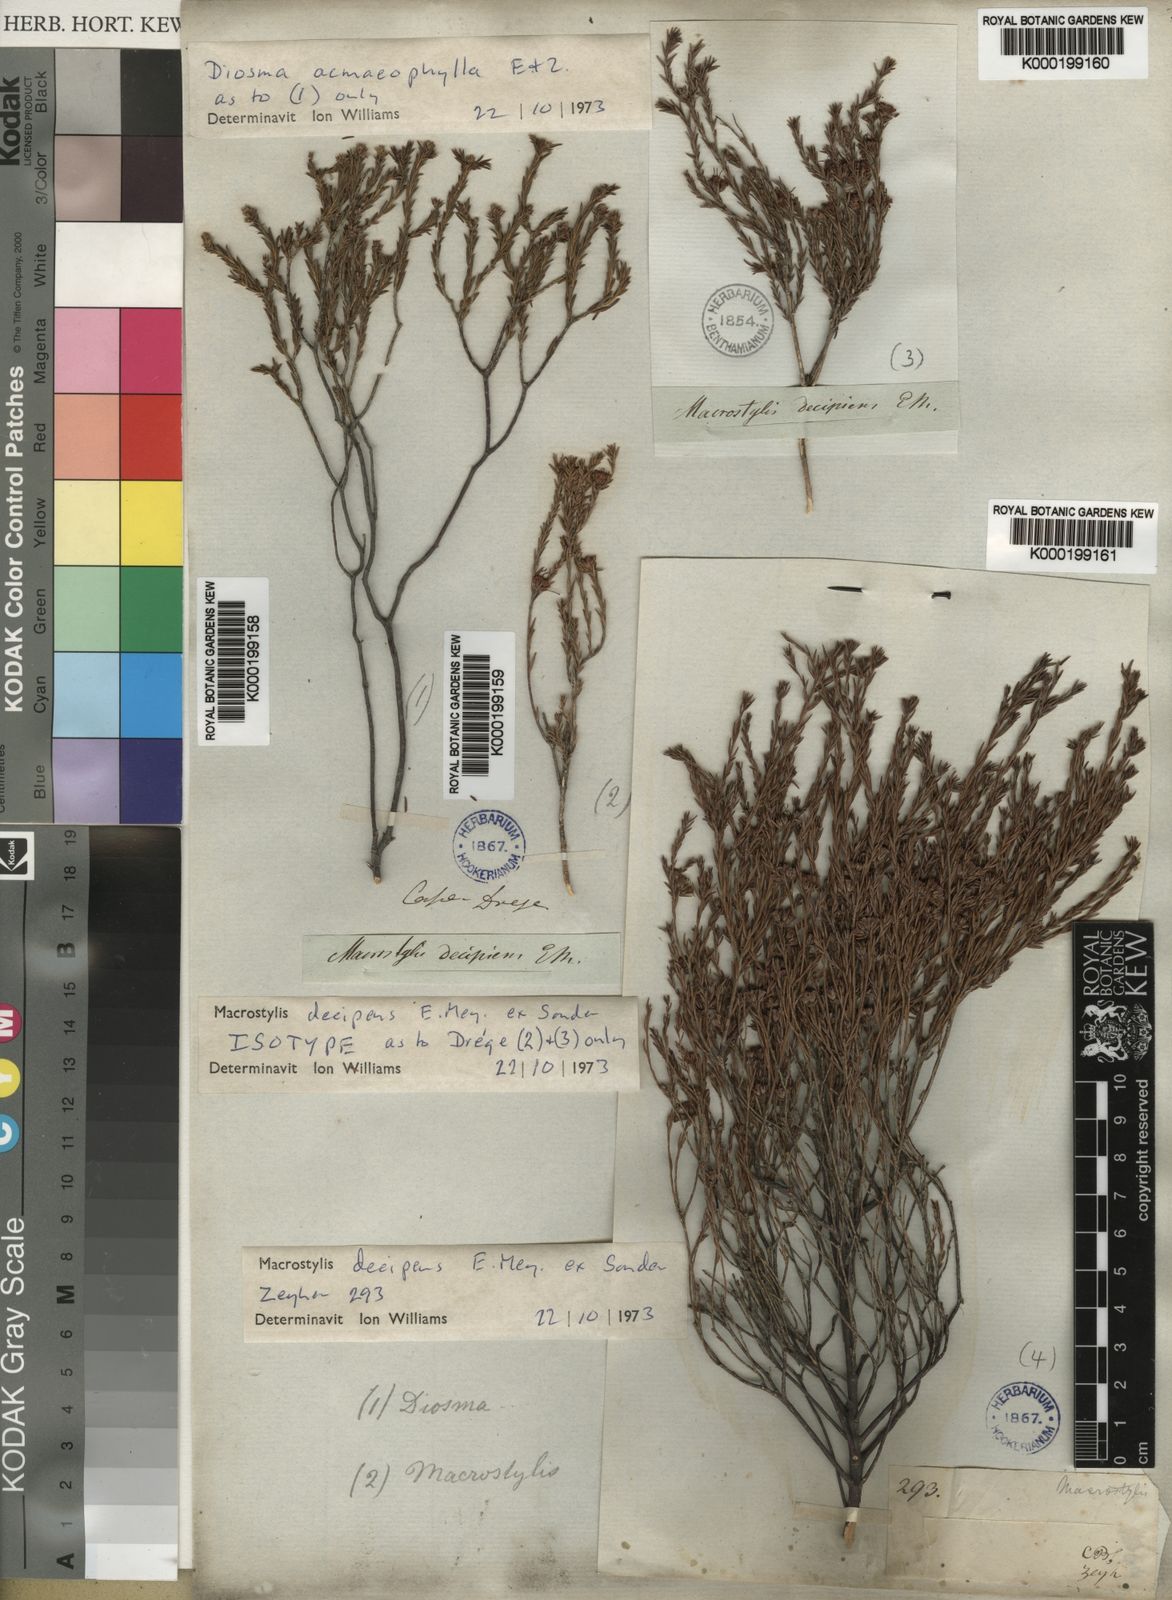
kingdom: Plantae
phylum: Tracheophyta
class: Magnoliopsida
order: Sapindales
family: Rutaceae
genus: Macrostylis
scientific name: Macrostylis decipiens
